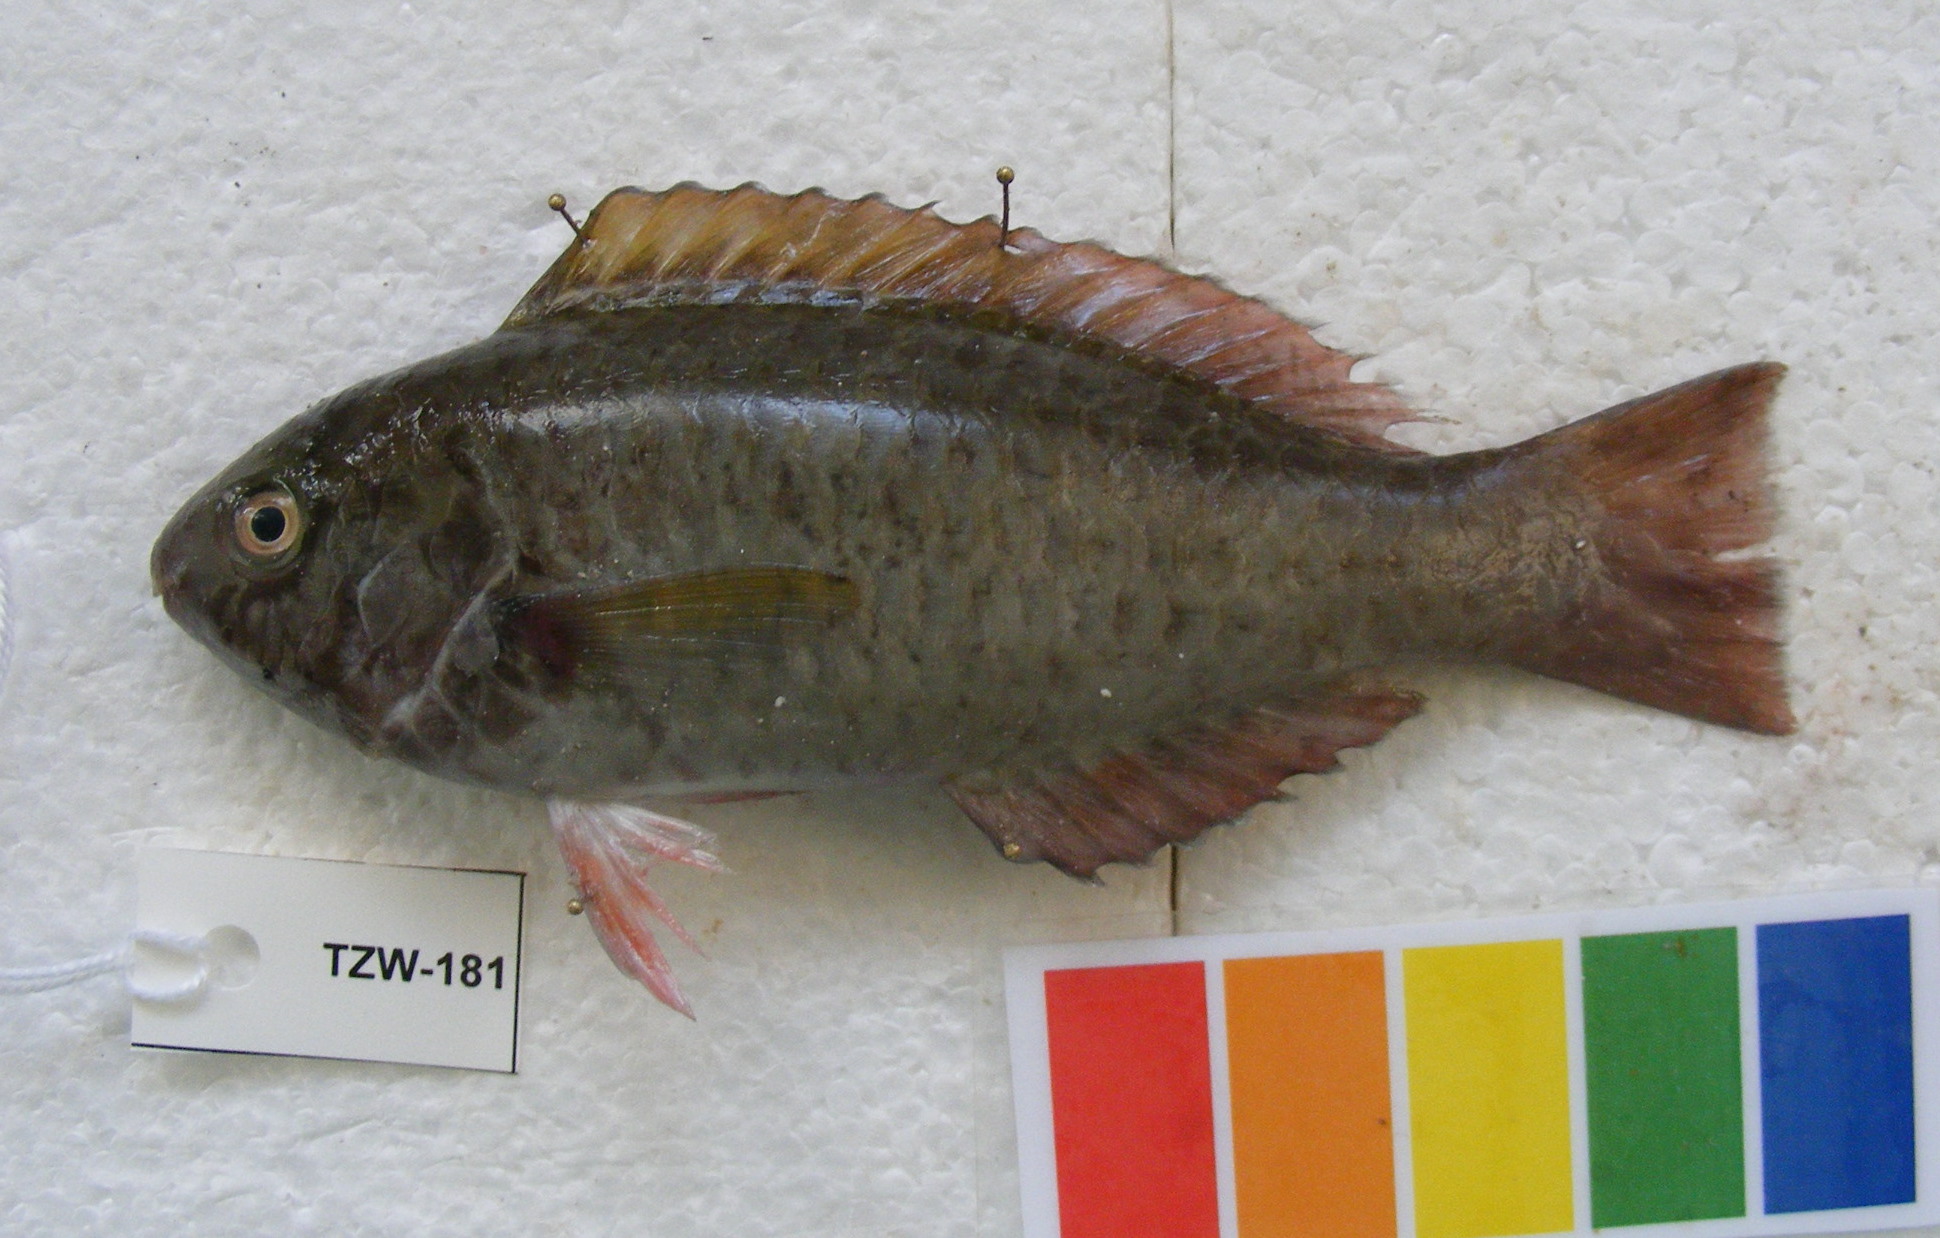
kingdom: Animalia
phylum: Chordata
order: Perciformes
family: Scaridae
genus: Scarus
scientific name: Scarus psittacus
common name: Palenose parrotfish
